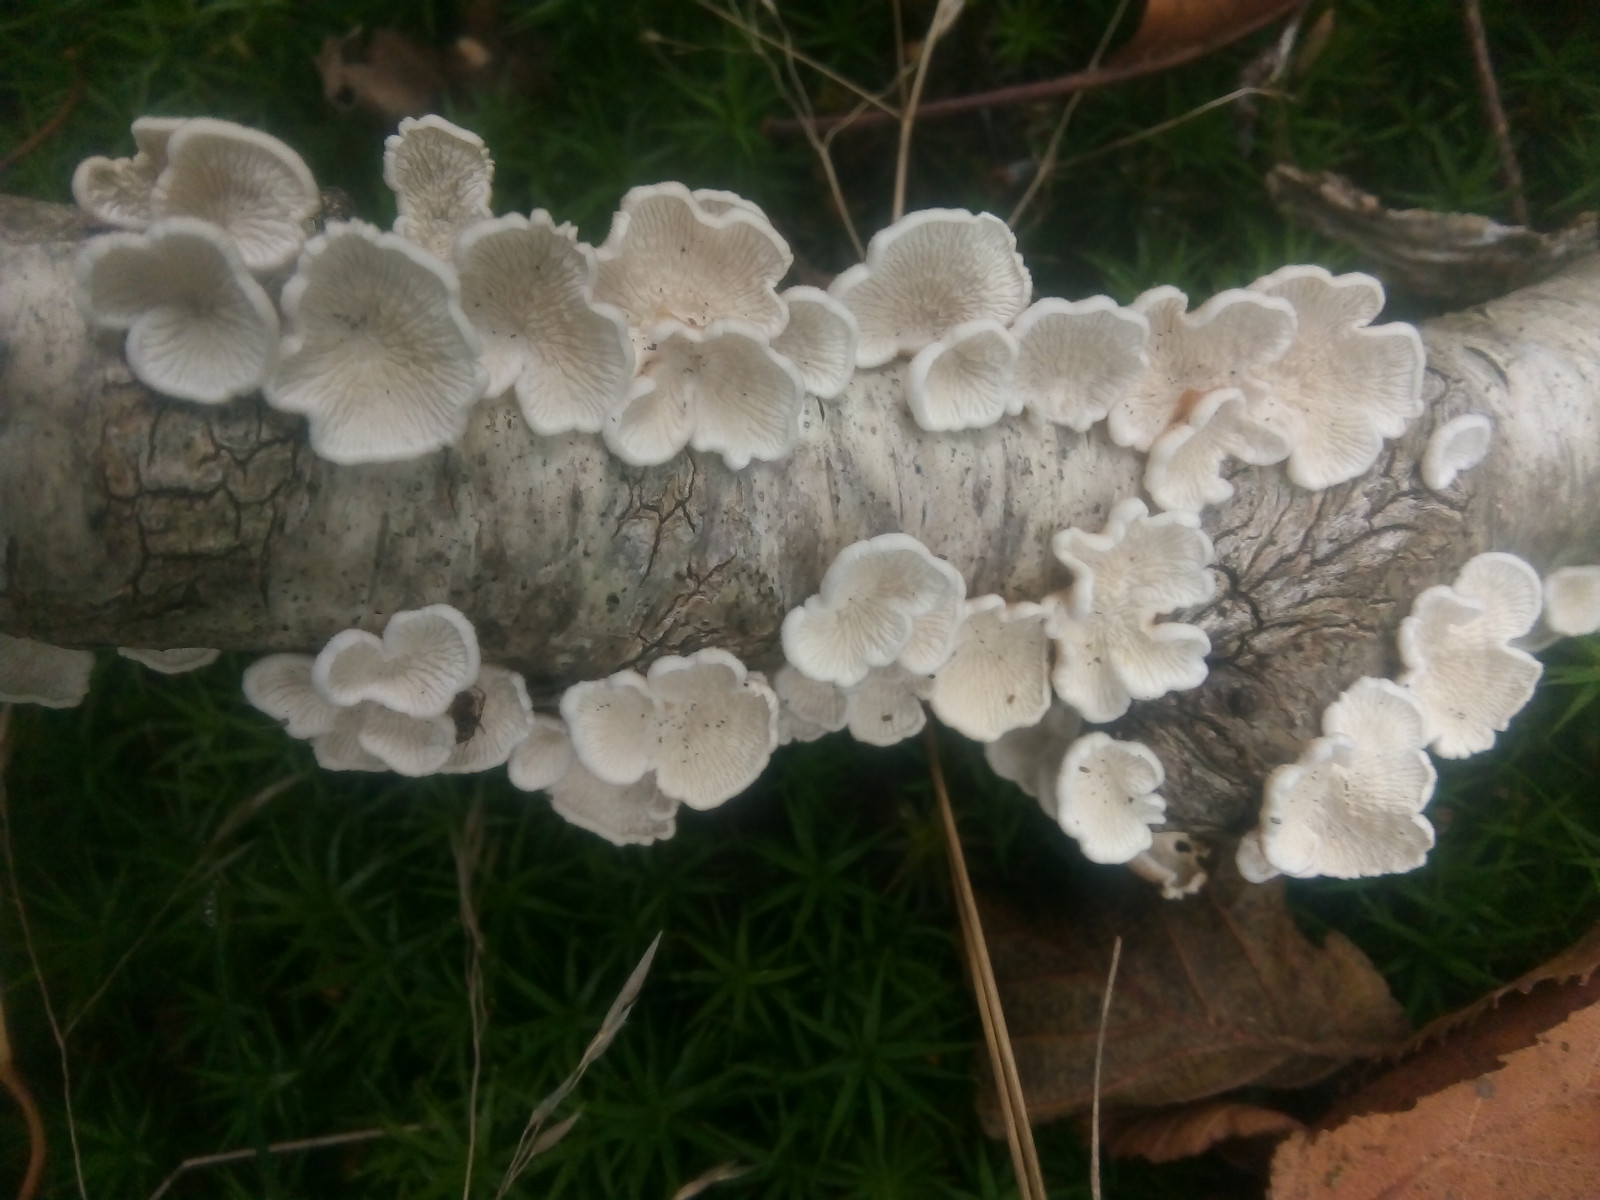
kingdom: Fungi
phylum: Basidiomycota
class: Agaricomycetes
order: Amylocorticiales
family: Amylocorticiaceae
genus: Plicaturopsis
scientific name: Plicaturopsis crispa
